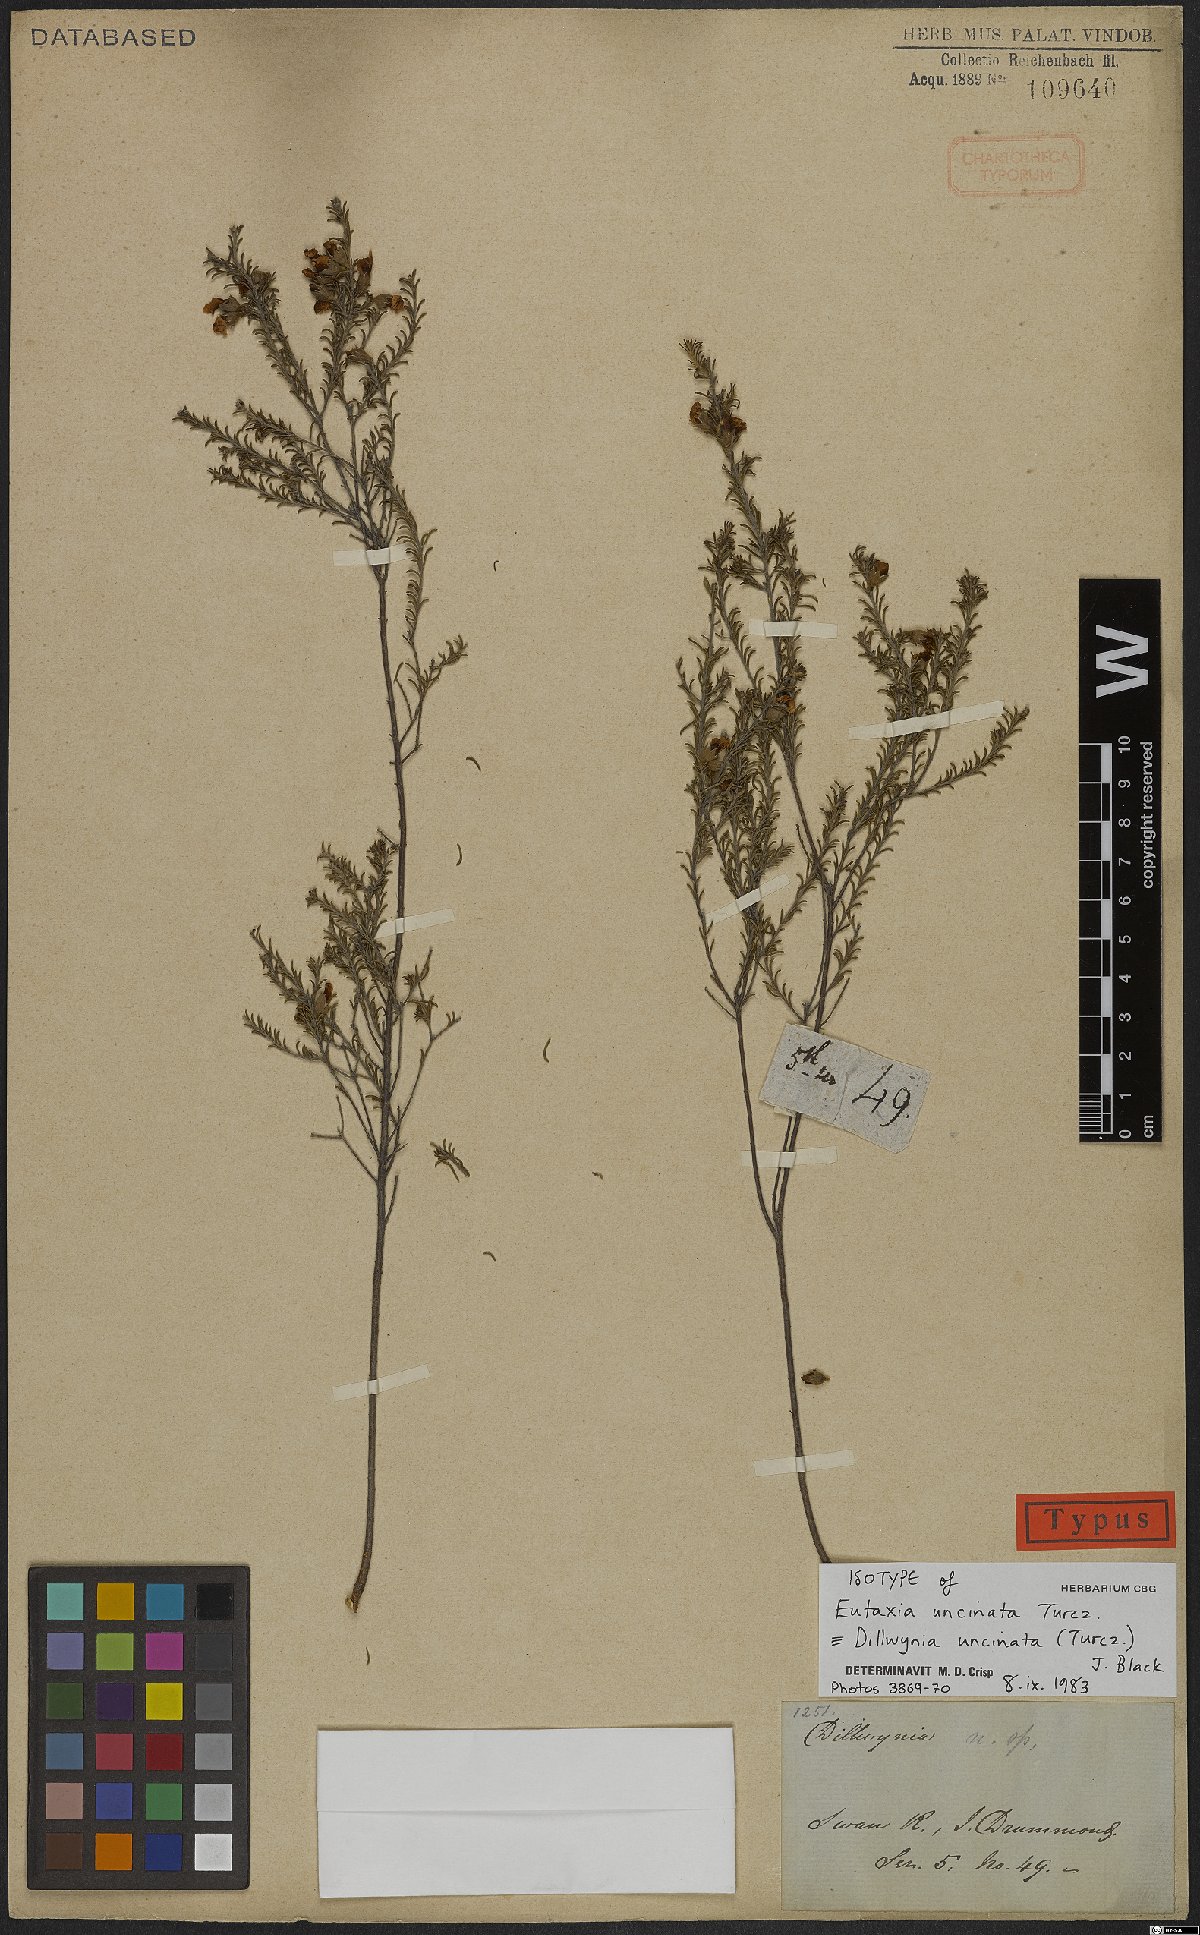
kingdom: Plantae
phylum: Tracheophyta
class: Magnoliopsida
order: Fabales
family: Fabaceae
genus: Dillwynia
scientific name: Dillwynia uncinata
